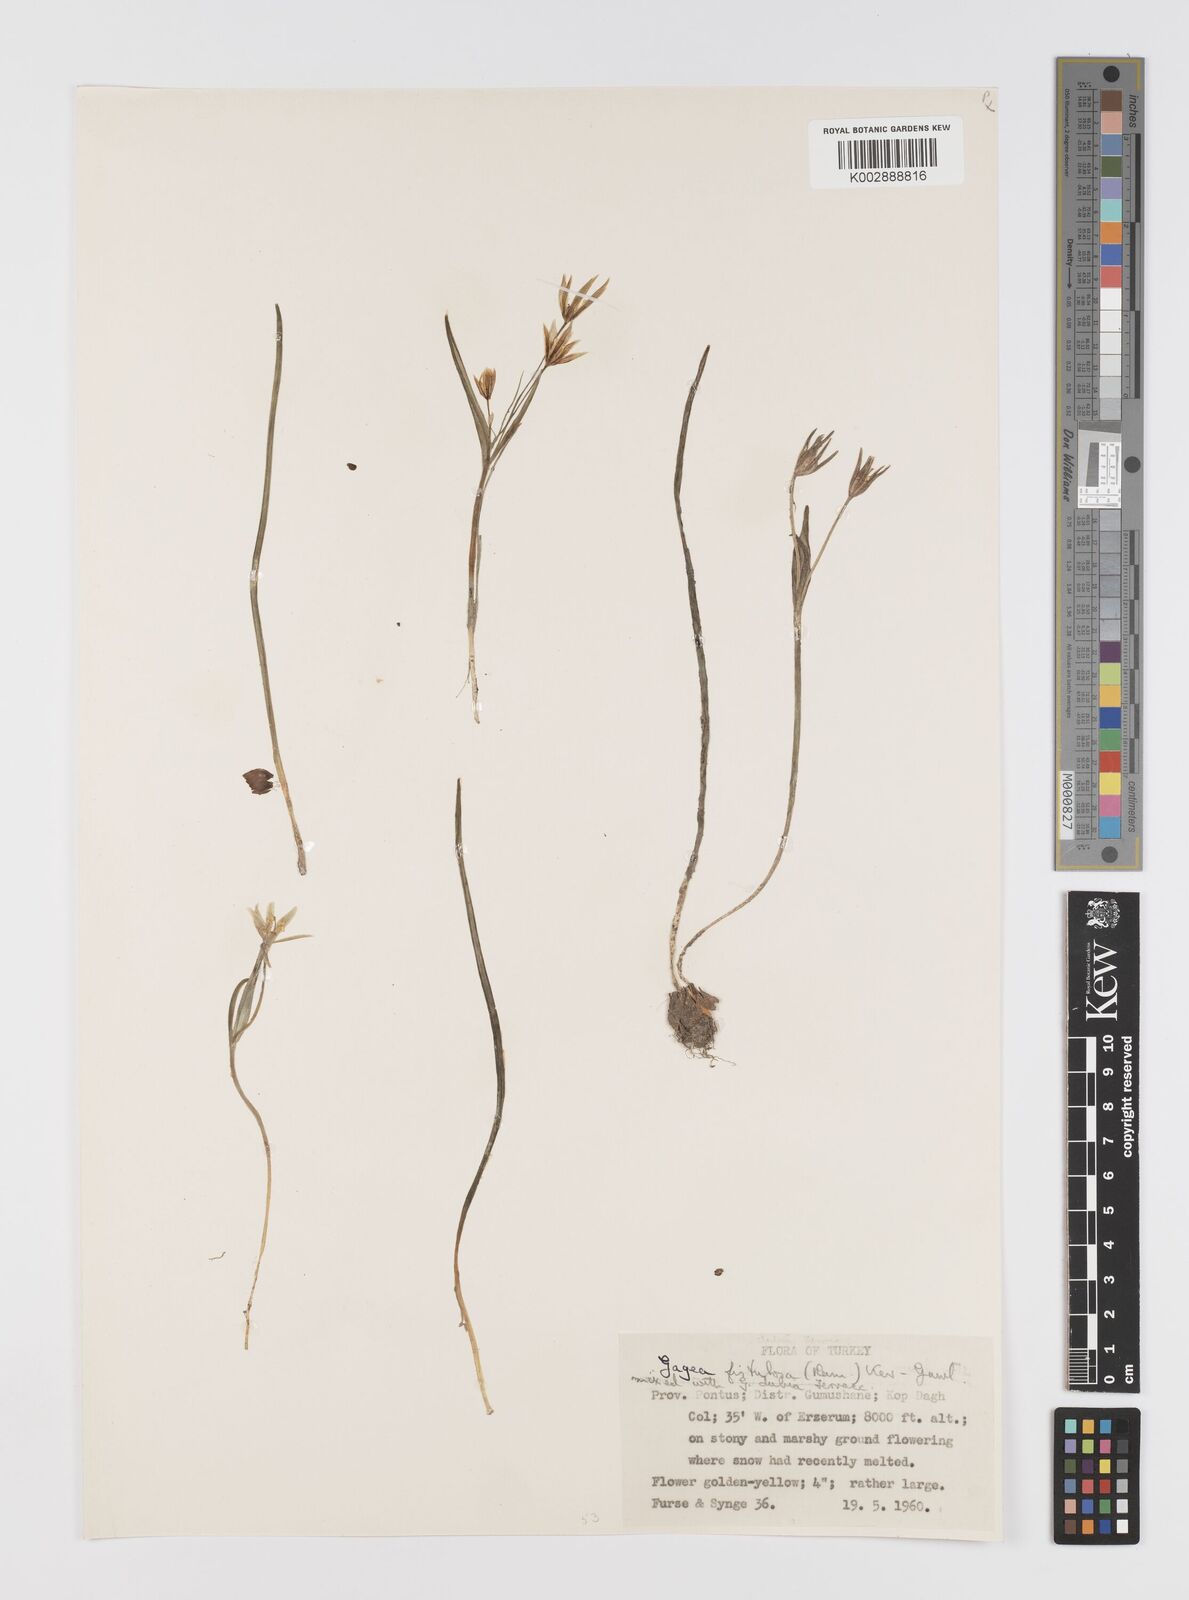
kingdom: Plantae
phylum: Tracheophyta
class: Liliopsida
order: Liliales
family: Liliaceae
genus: Gagea
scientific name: Gagea
